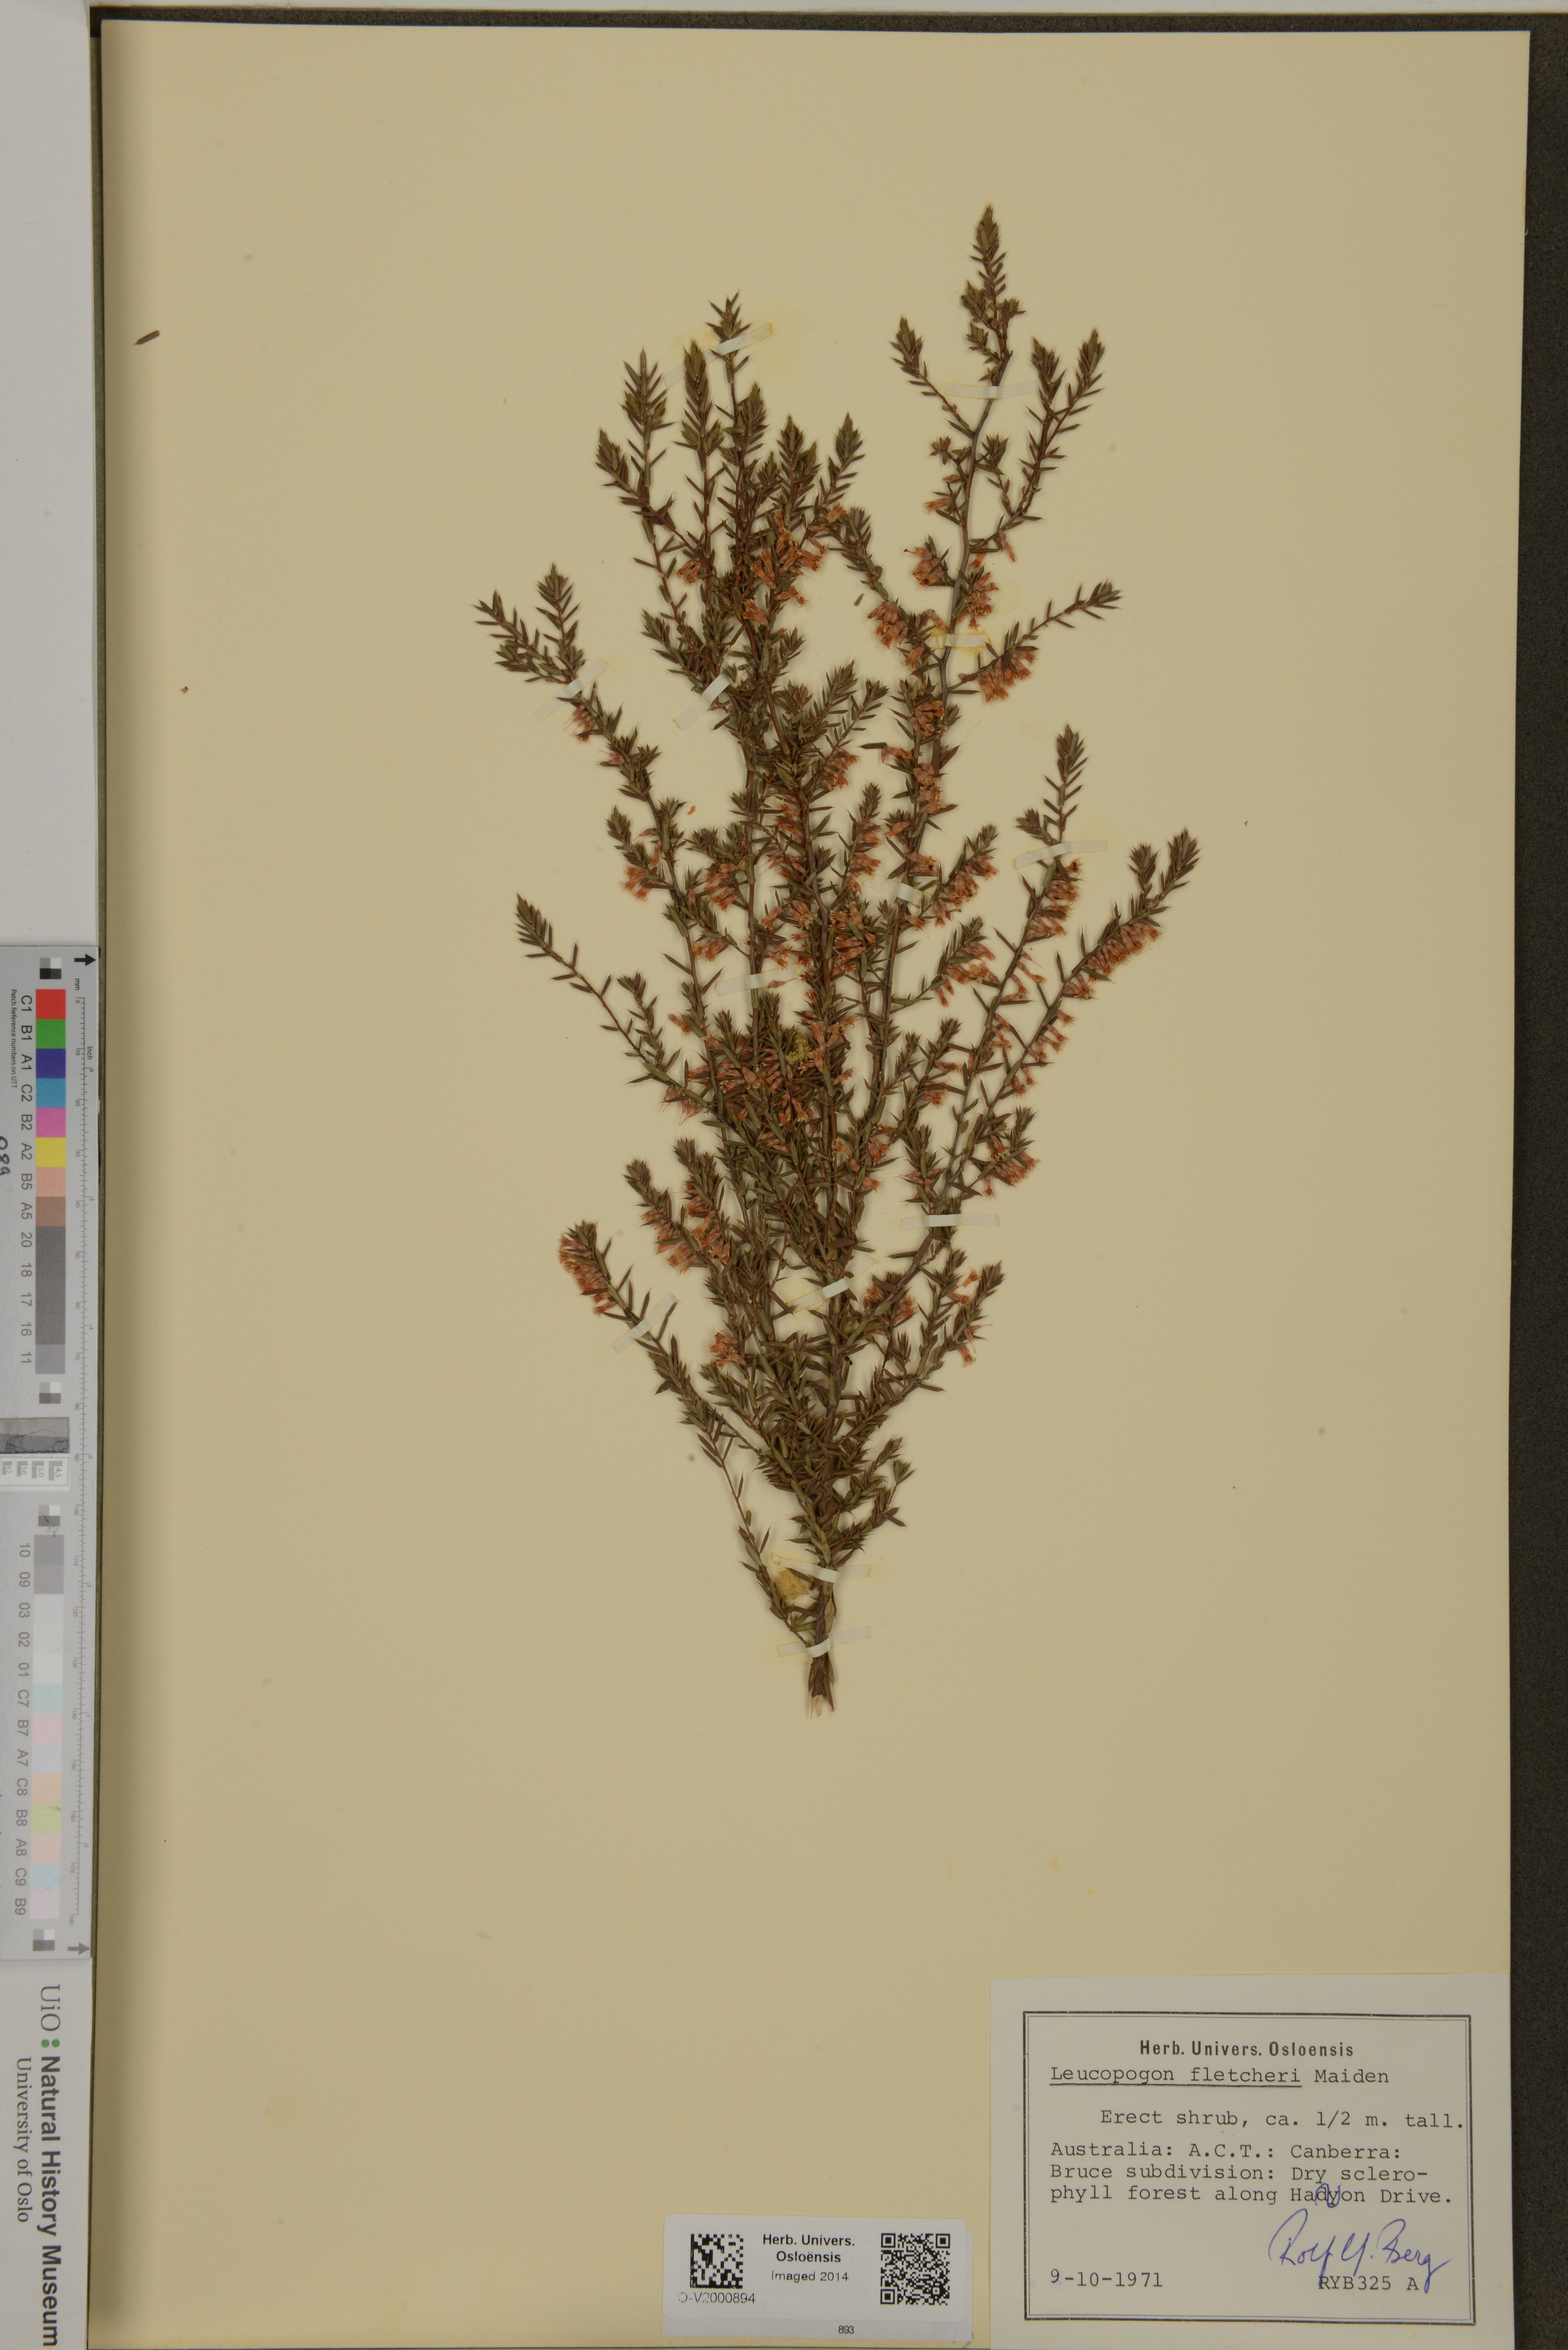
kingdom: Plantae
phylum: Tracheophyta
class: Magnoliopsida
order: Ericales
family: Ericaceae
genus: Styphelia
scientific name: Styphelia fletcheri
